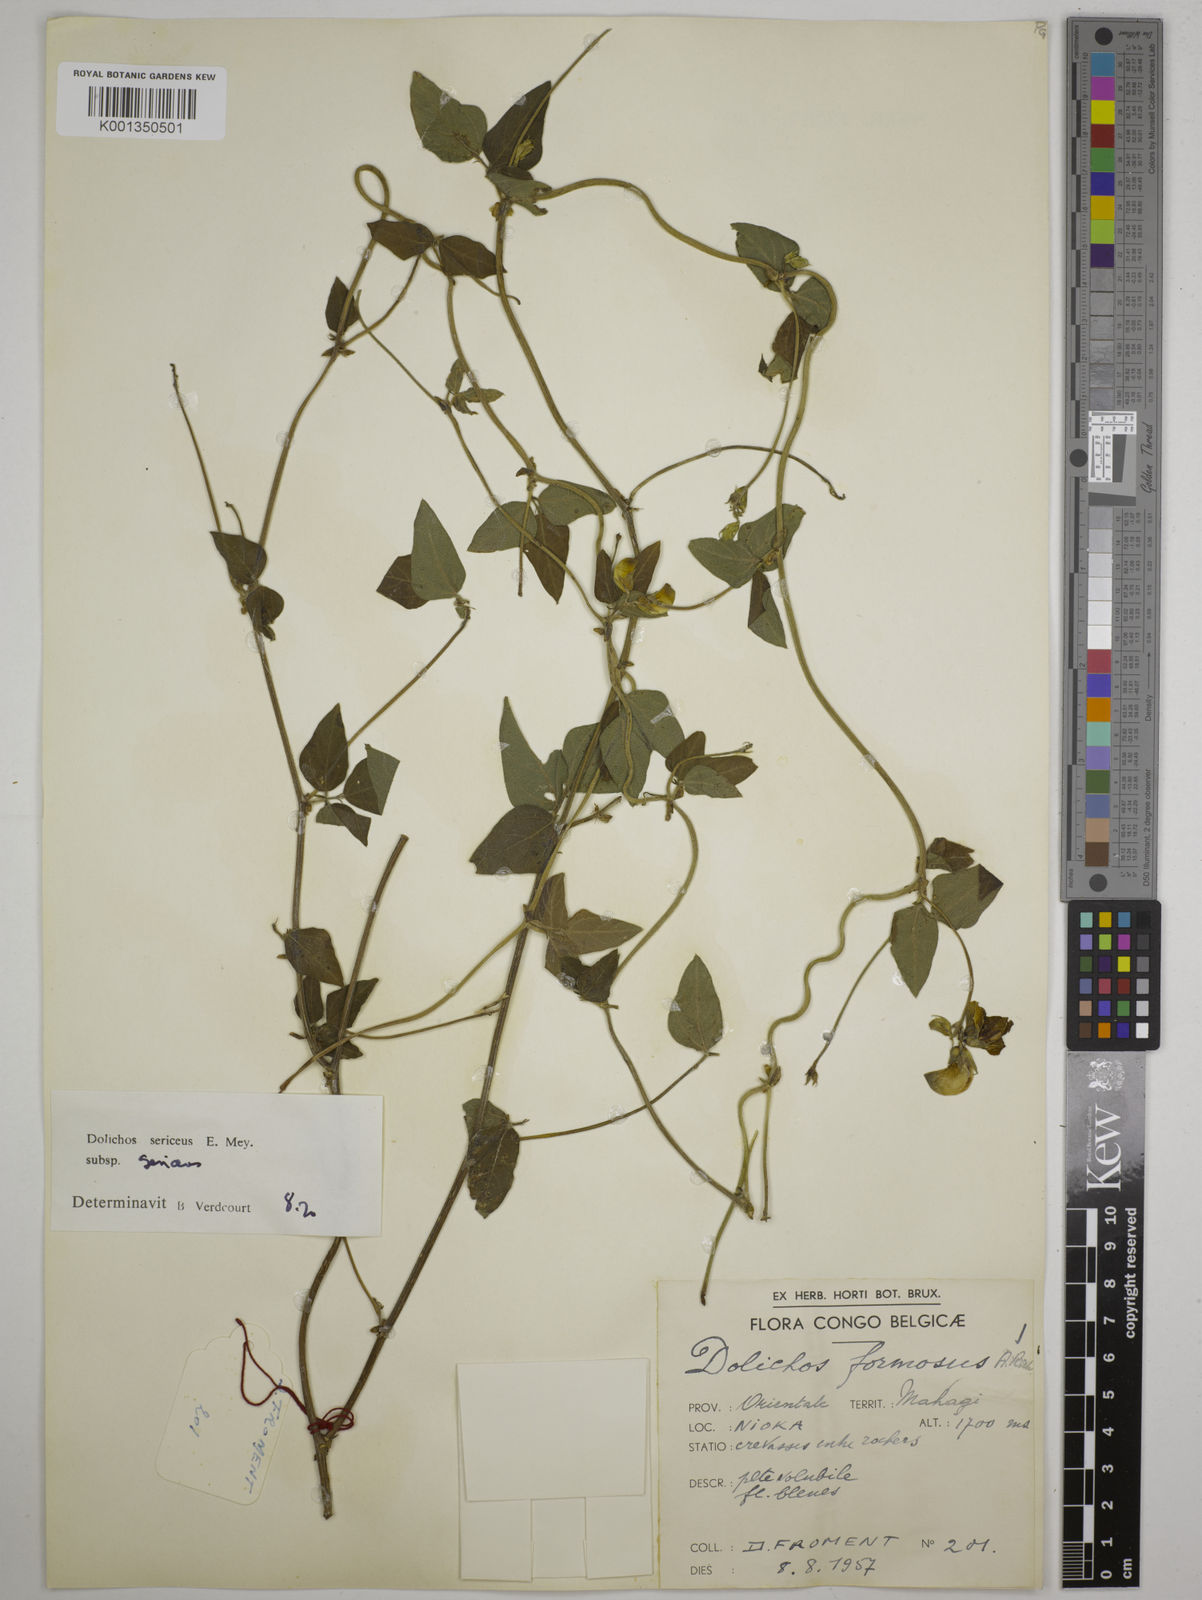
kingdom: Plantae
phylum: Tracheophyta
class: Magnoliopsida
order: Fabales
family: Fabaceae
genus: Dolichos
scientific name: Dolichos sericeus
